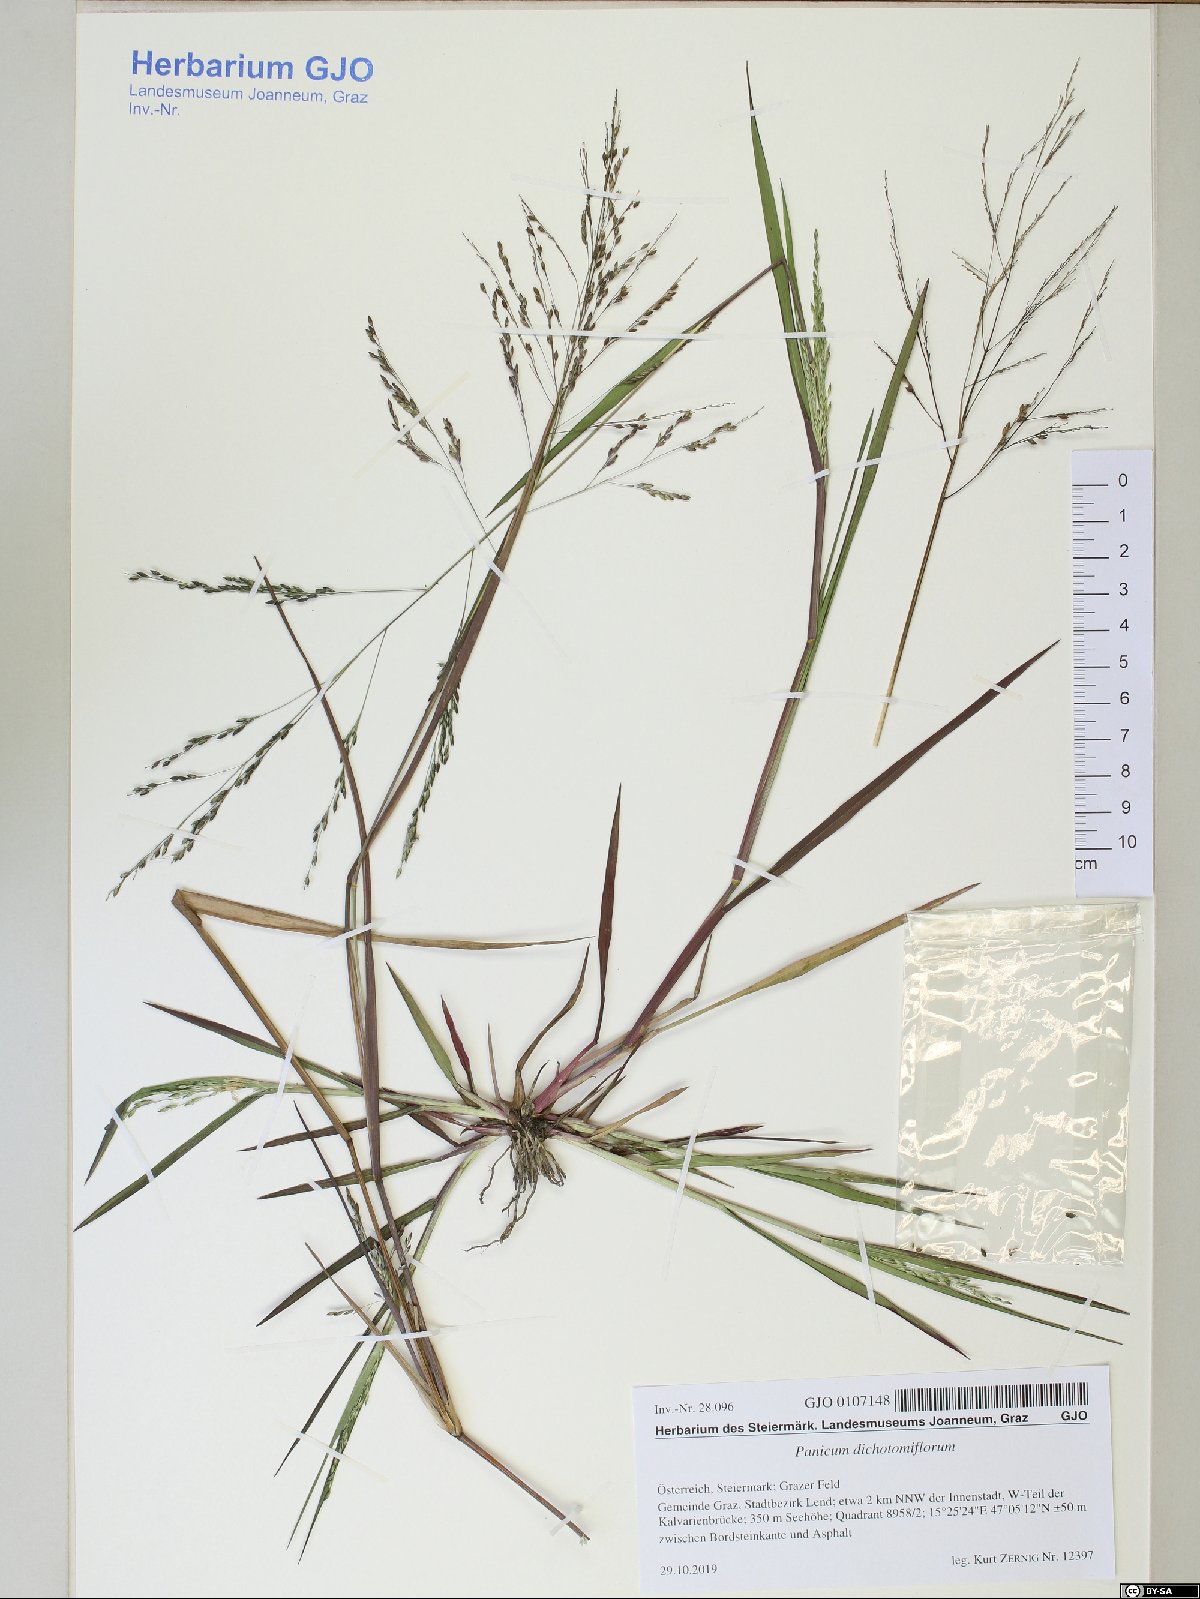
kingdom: Plantae
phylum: Tracheophyta
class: Liliopsida
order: Poales
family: Poaceae
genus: Panicum
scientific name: Panicum dichotomiflorum
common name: Autumn millet
